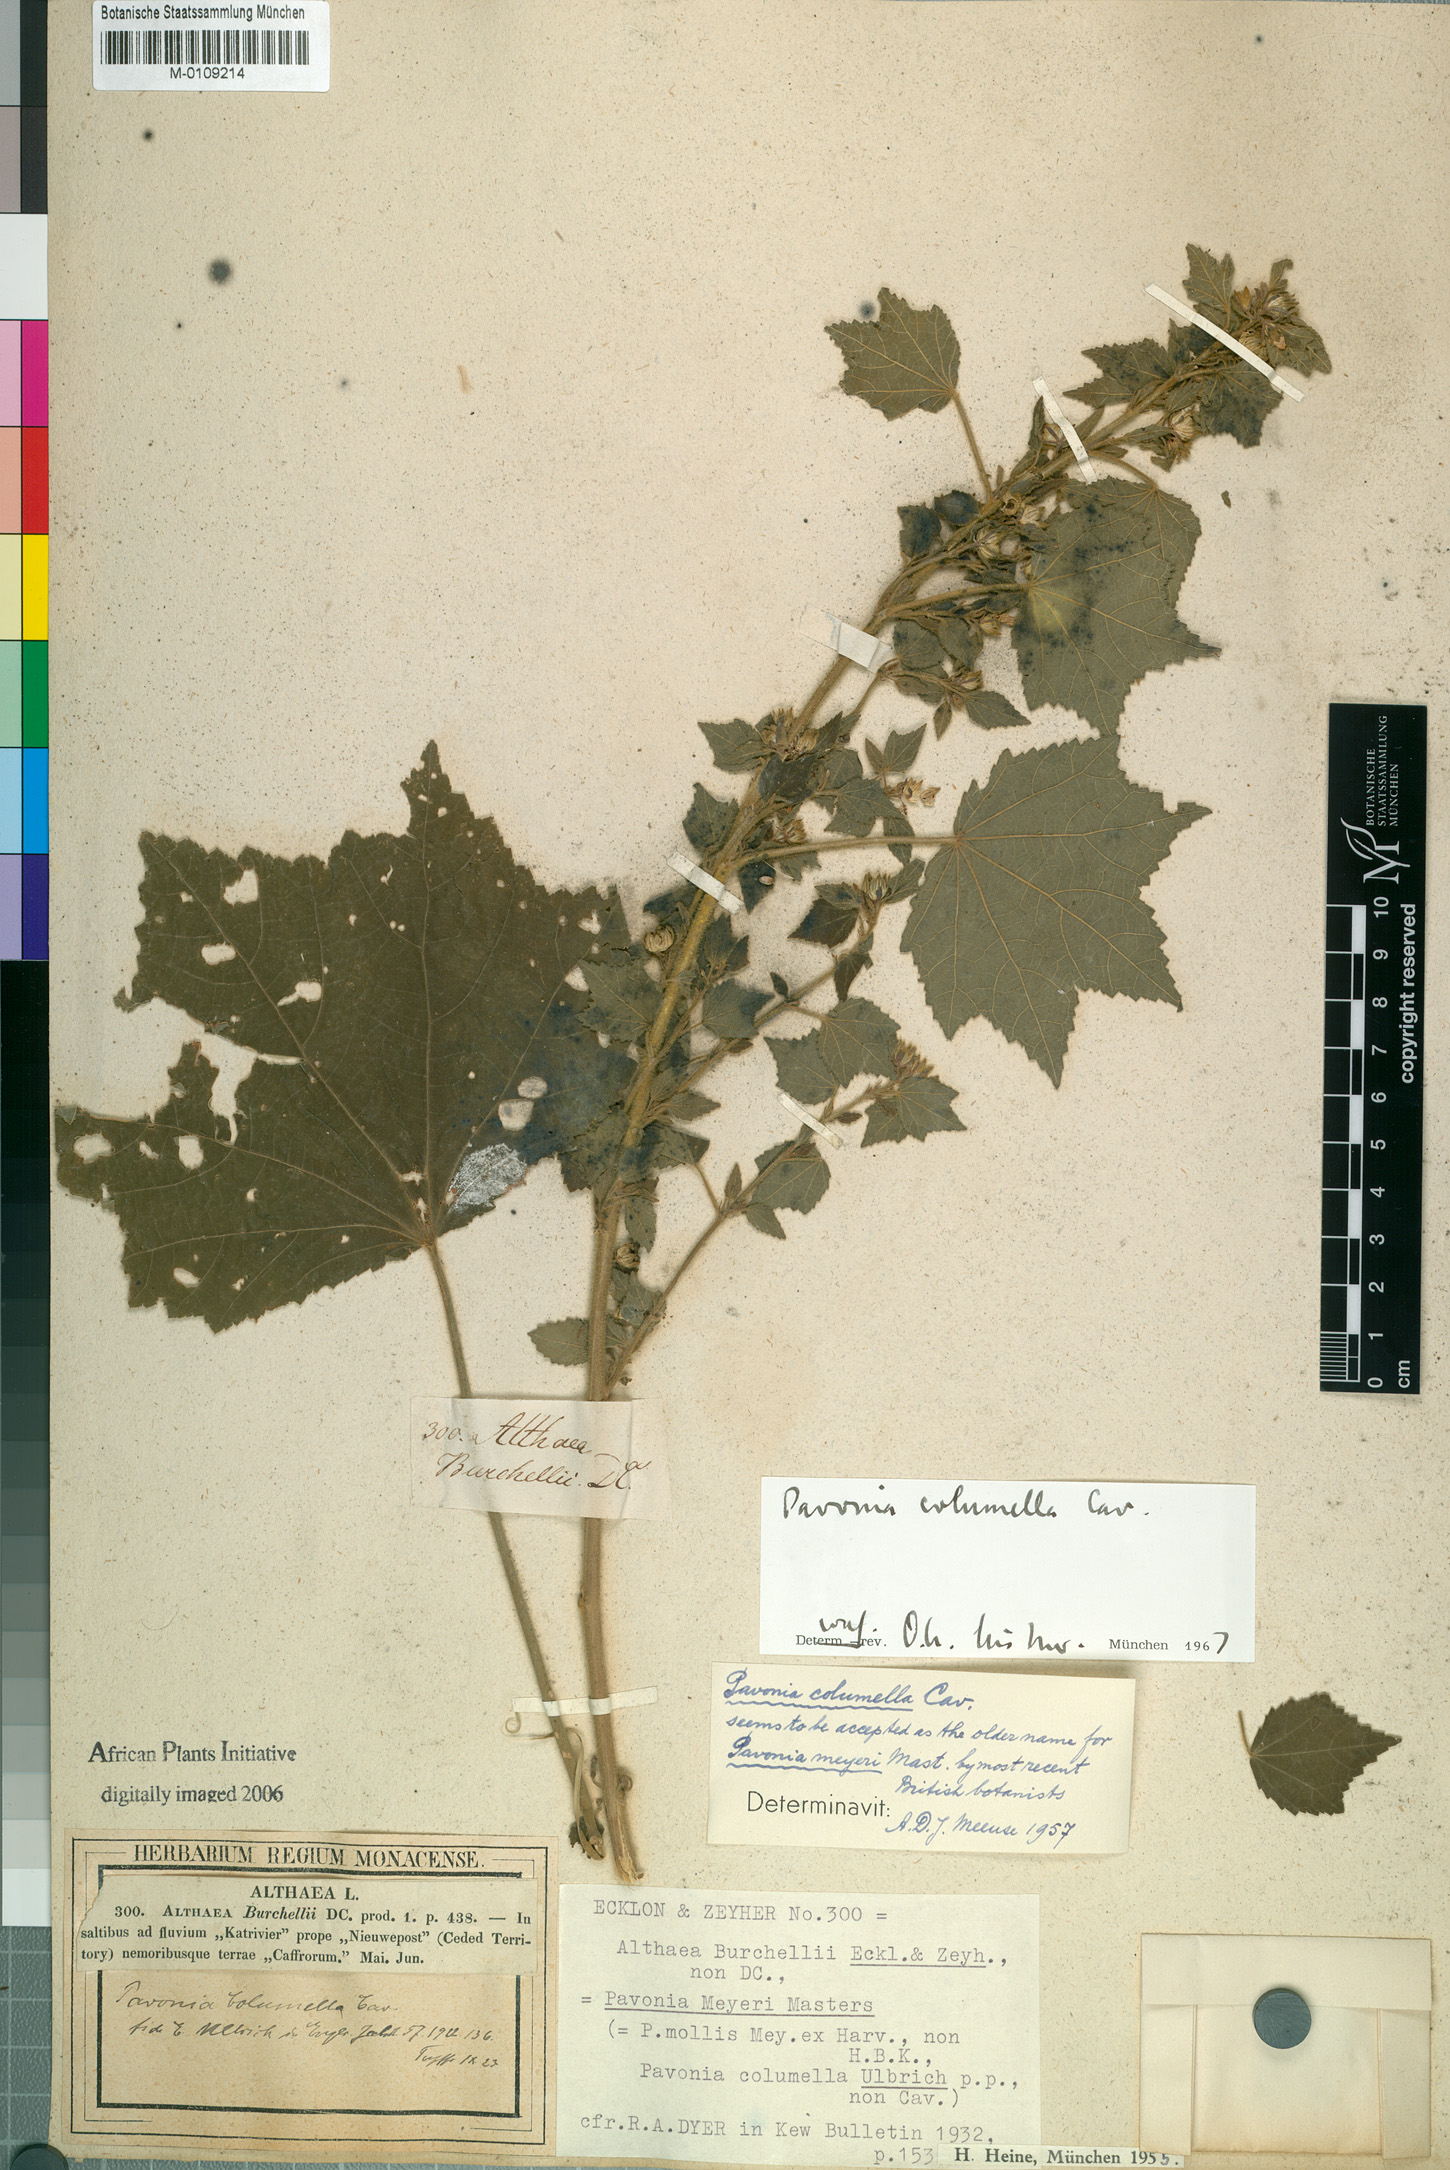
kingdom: Plantae
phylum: Tracheophyta
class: Magnoliopsida
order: Malvales
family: Malvaceae
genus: Pavonia
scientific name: Pavonia columella
